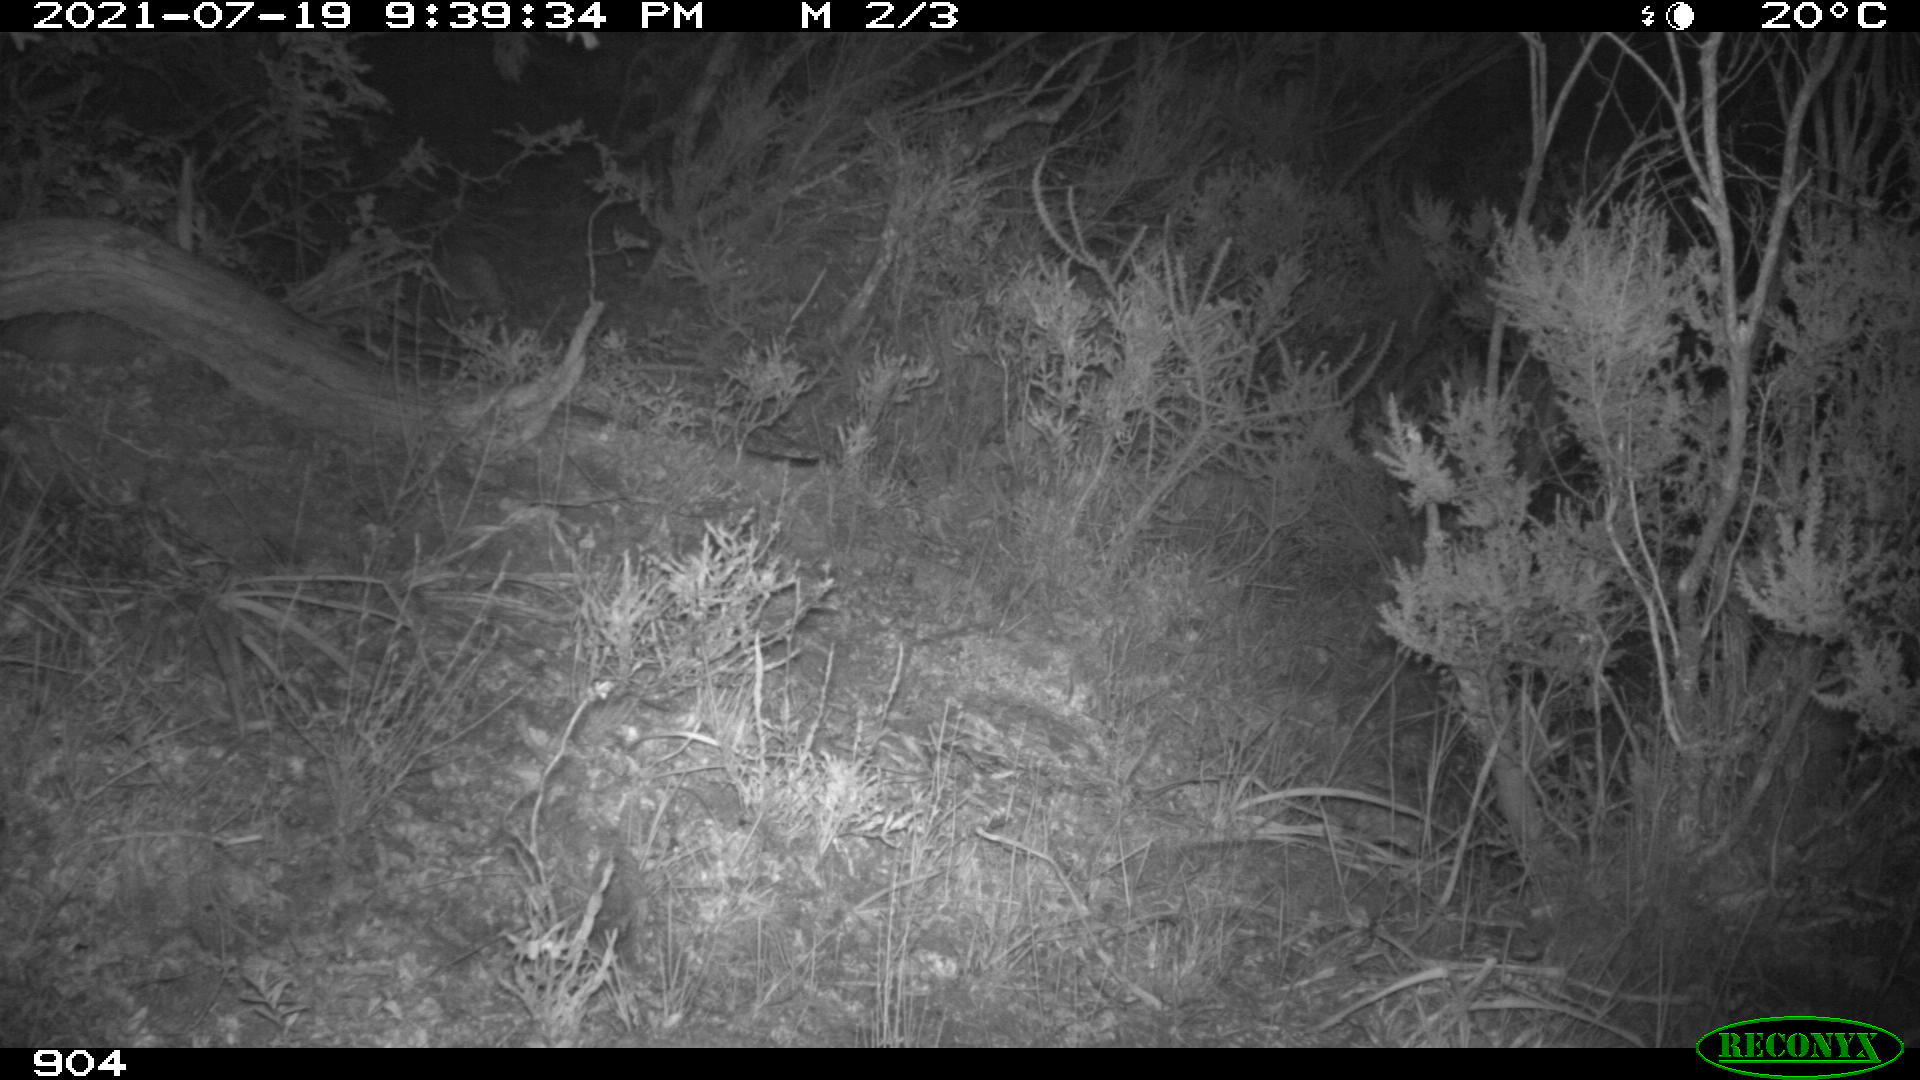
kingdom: Animalia
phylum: Chordata
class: Mammalia
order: Artiodactyla
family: Suidae
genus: Sus
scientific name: Sus scrofa
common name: Wild boar
